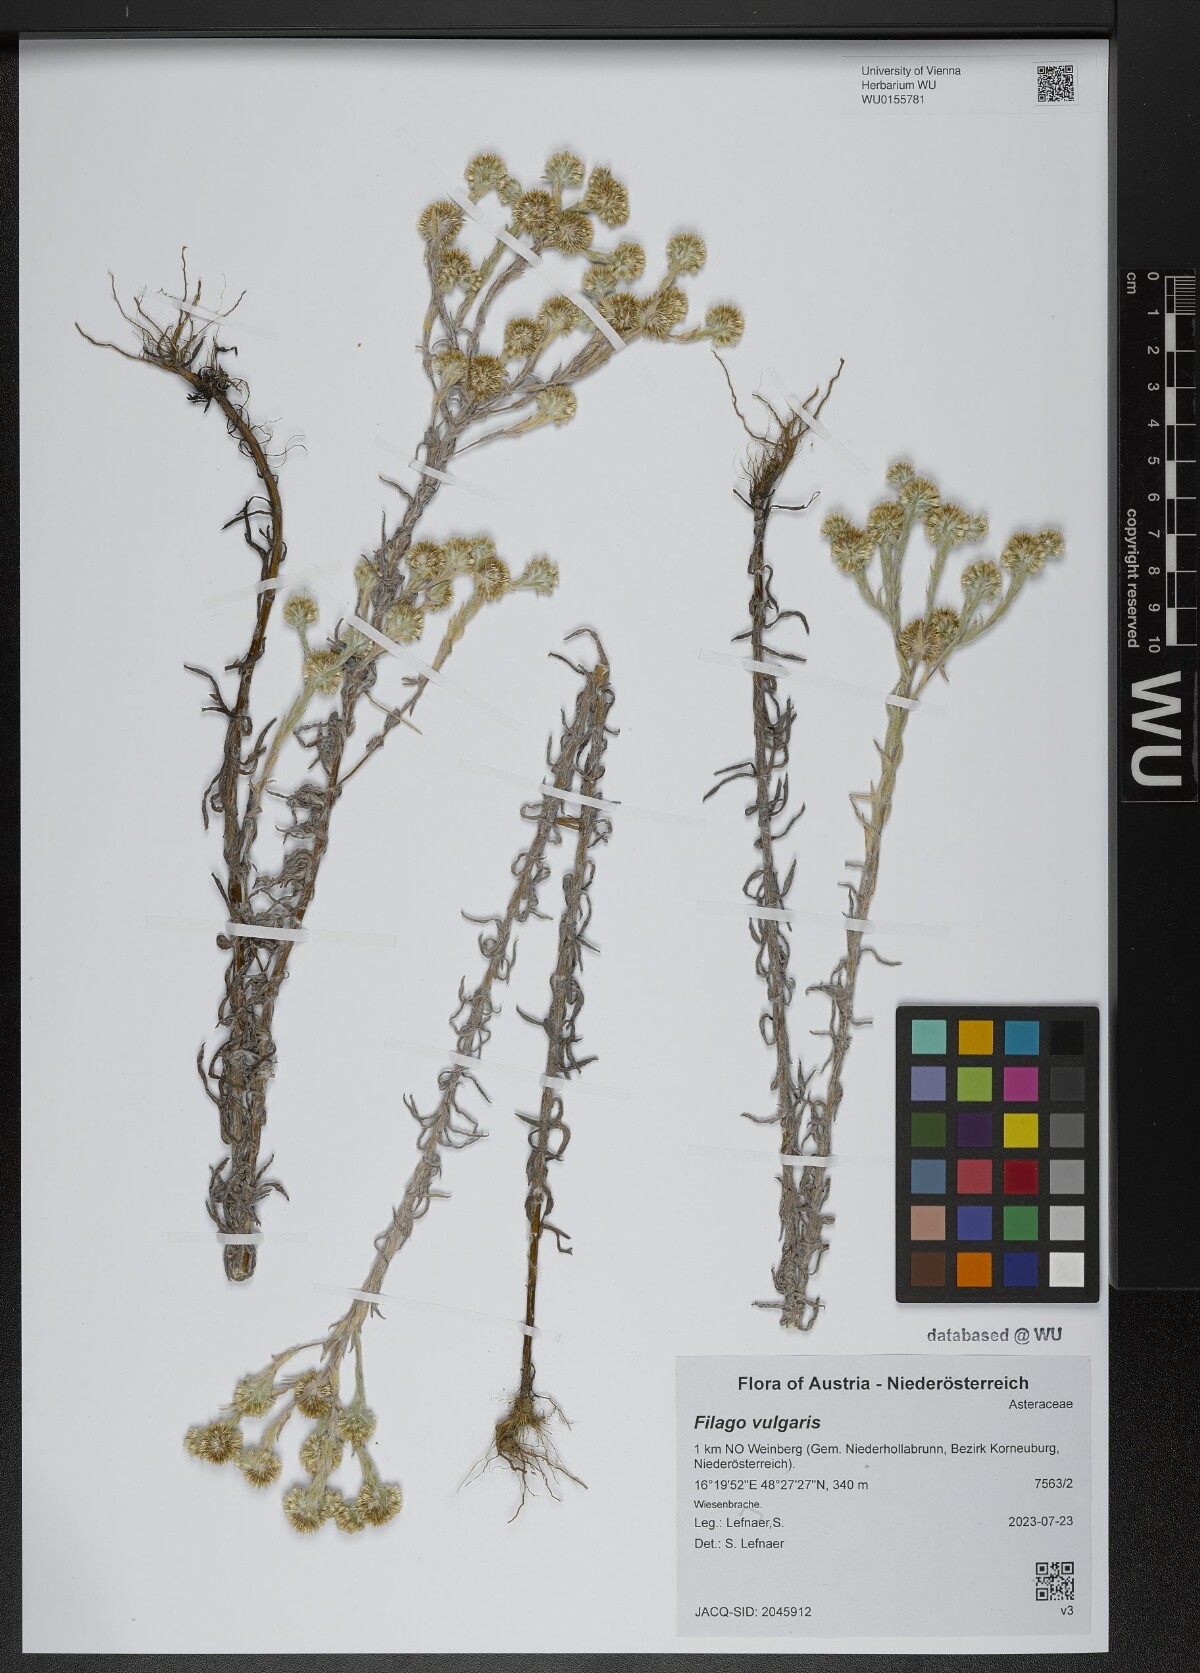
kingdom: Plantae
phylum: Tracheophyta
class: Magnoliopsida
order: Asterales
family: Asteraceae
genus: Filago
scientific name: Filago germanica
